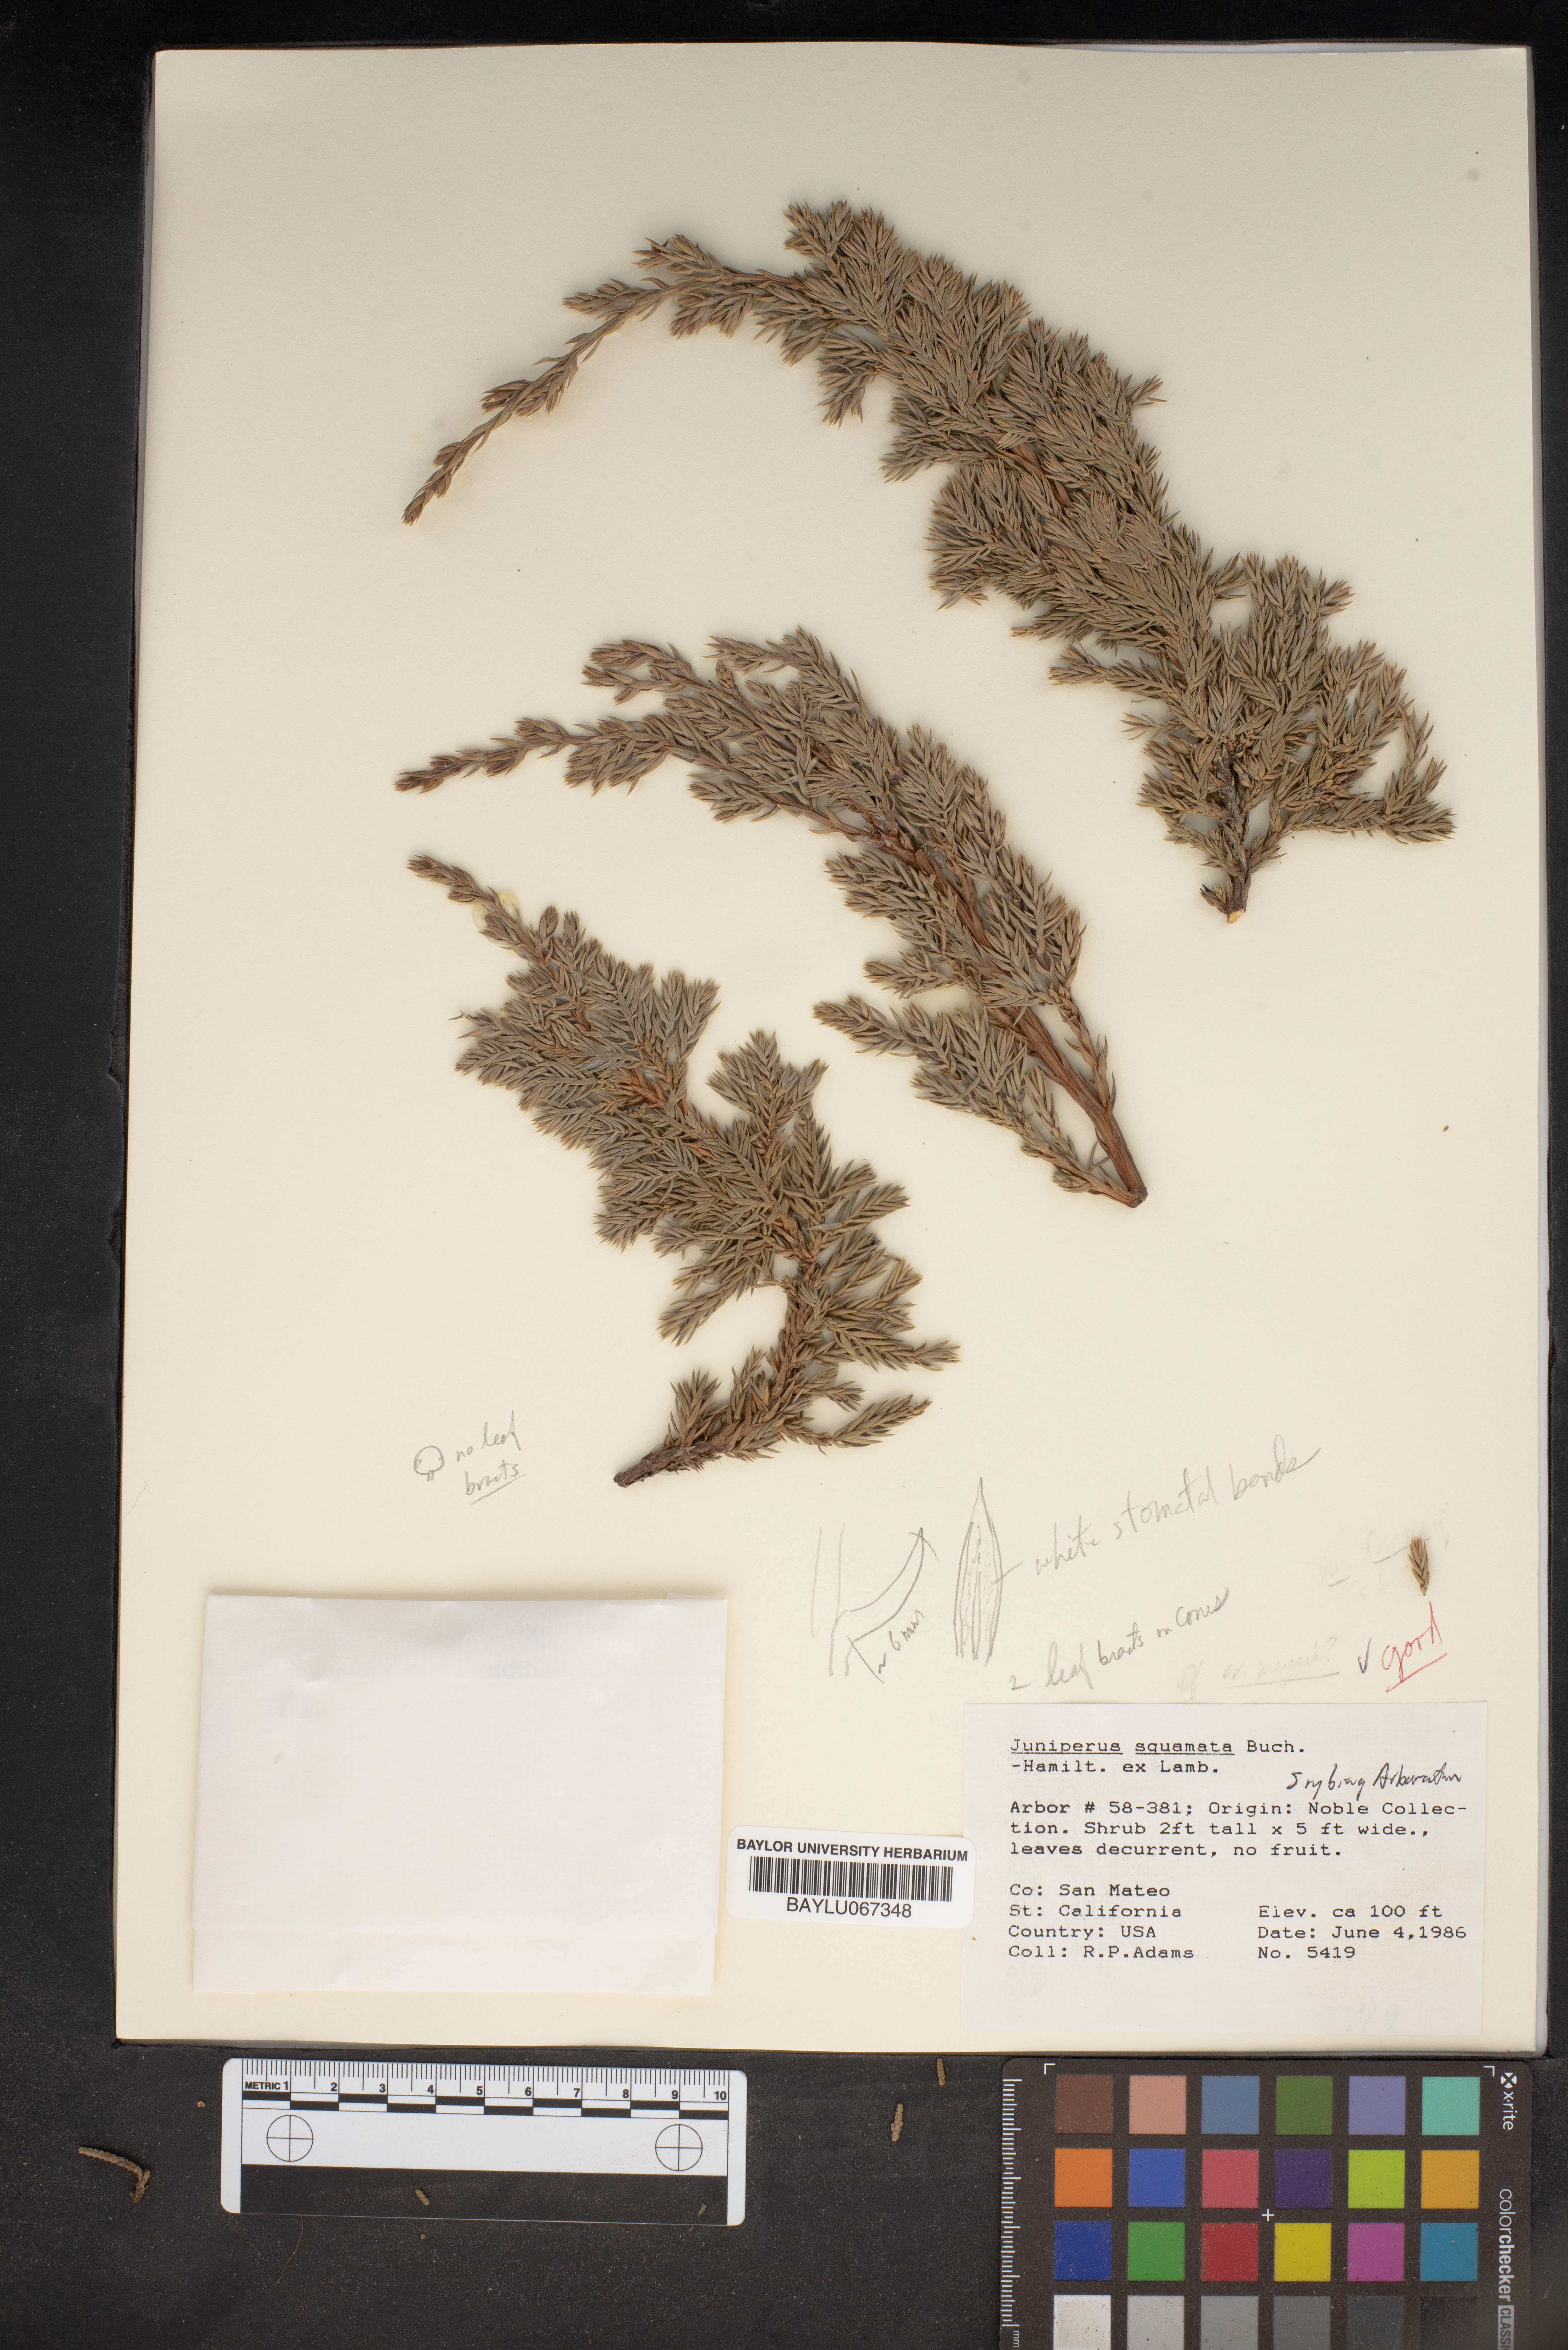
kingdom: Plantae
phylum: Tracheophyta
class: Pinopsida
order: Pinales
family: Cupressaceae
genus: Juniperus
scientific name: Juniperus squamata
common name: Flaky juniper
